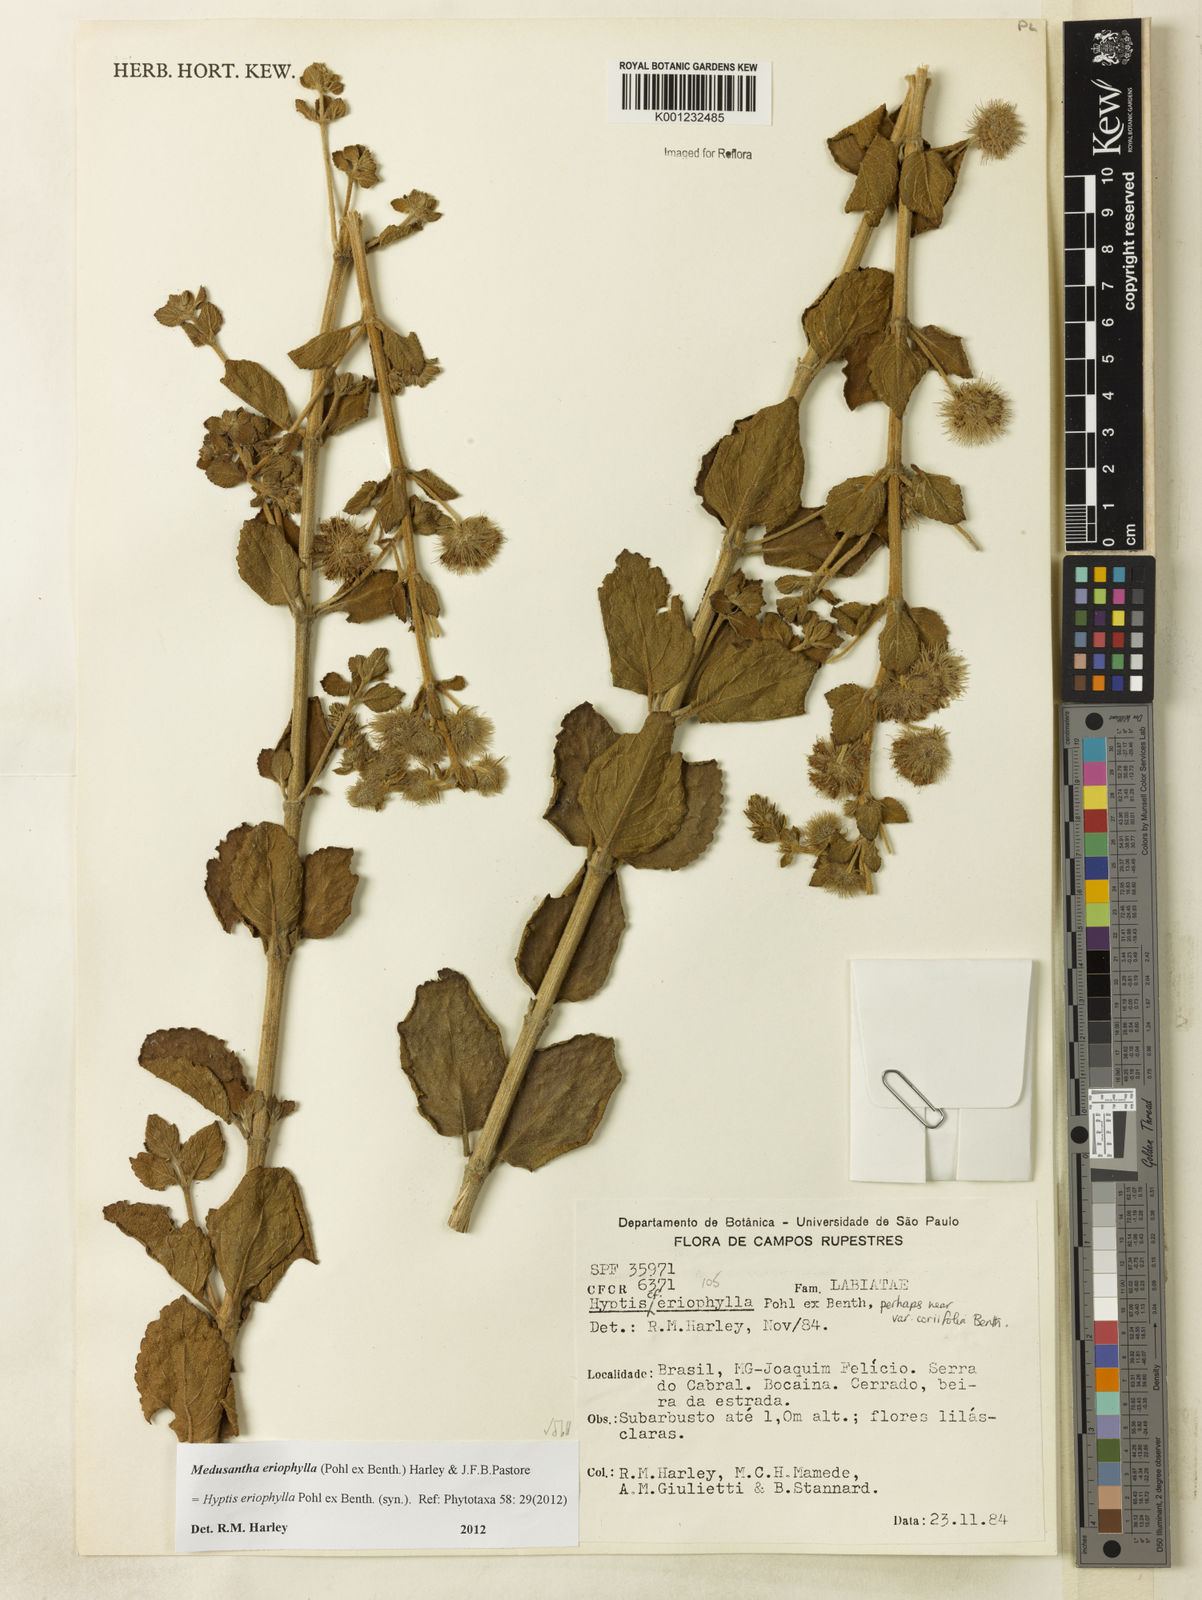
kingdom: Plantae
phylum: Tracheophyta
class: Magnoliopsida
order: Lamiales
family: Lamiaceae
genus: Medusantha
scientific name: Medusantha eriophylla
